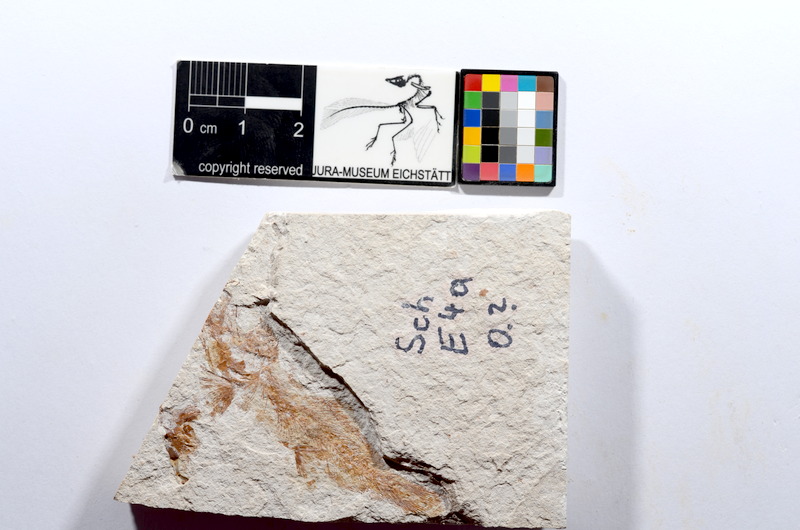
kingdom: Animalia
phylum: Chordata
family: Ascalaboidae
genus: Tharsis
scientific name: Tharsis dubius
